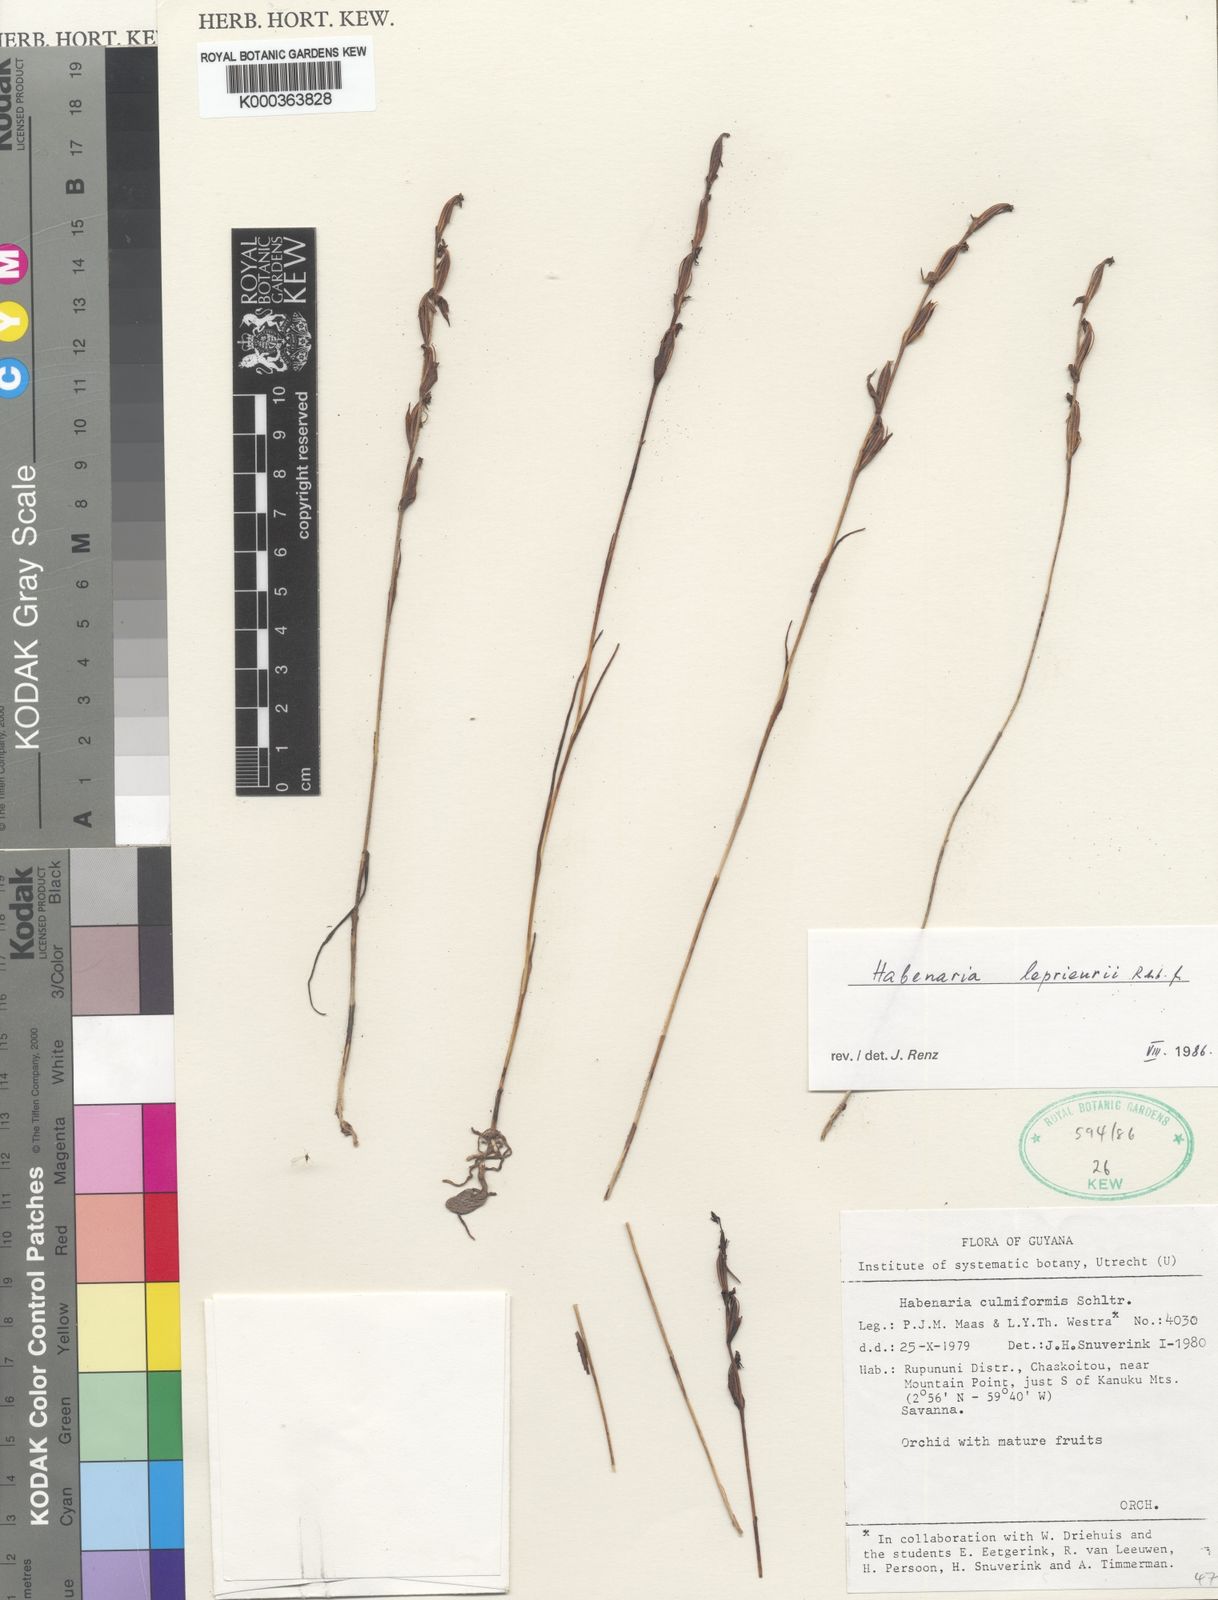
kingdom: Plantae
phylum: Tracheophyta
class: Liliopsida
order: Asparagales
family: Orchidaceae
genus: Habenaria
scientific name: Habenaria leprieurii
